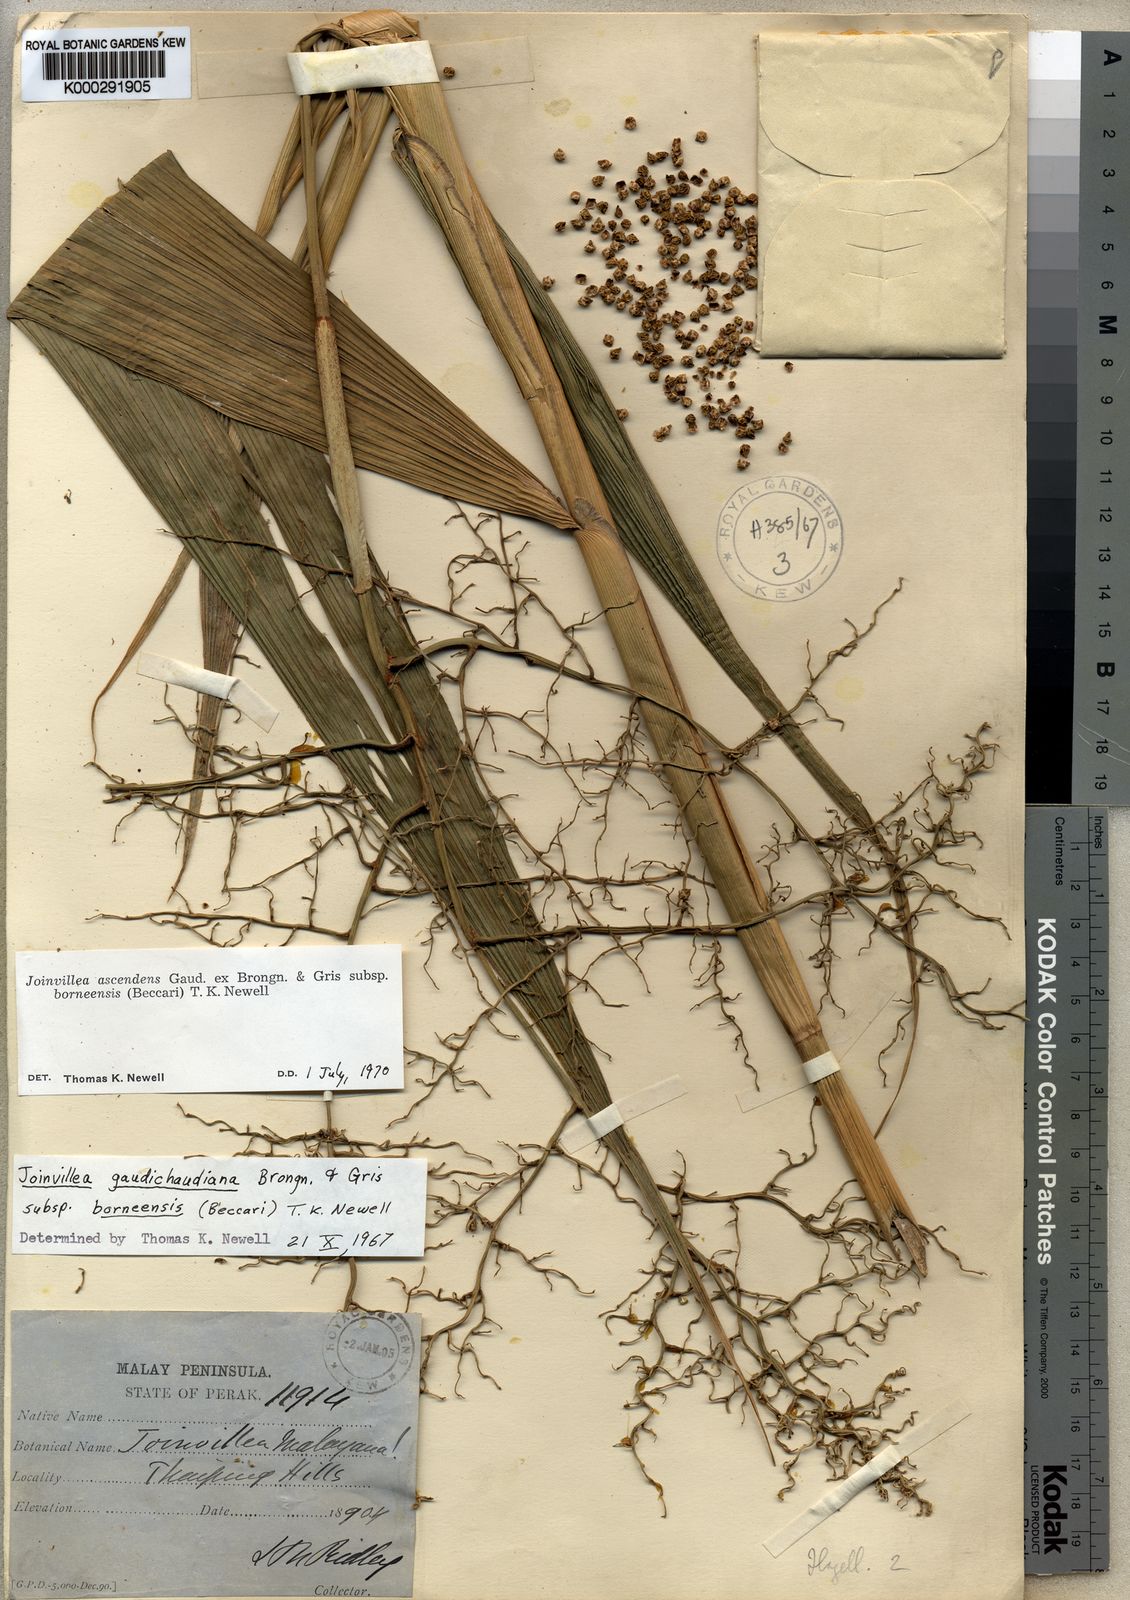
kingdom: Plantae
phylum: Tracheophyta
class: Liliopsida
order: Poales
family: Joinvilleaceae
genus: Joinvillea
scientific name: Joinvillea ascendens
